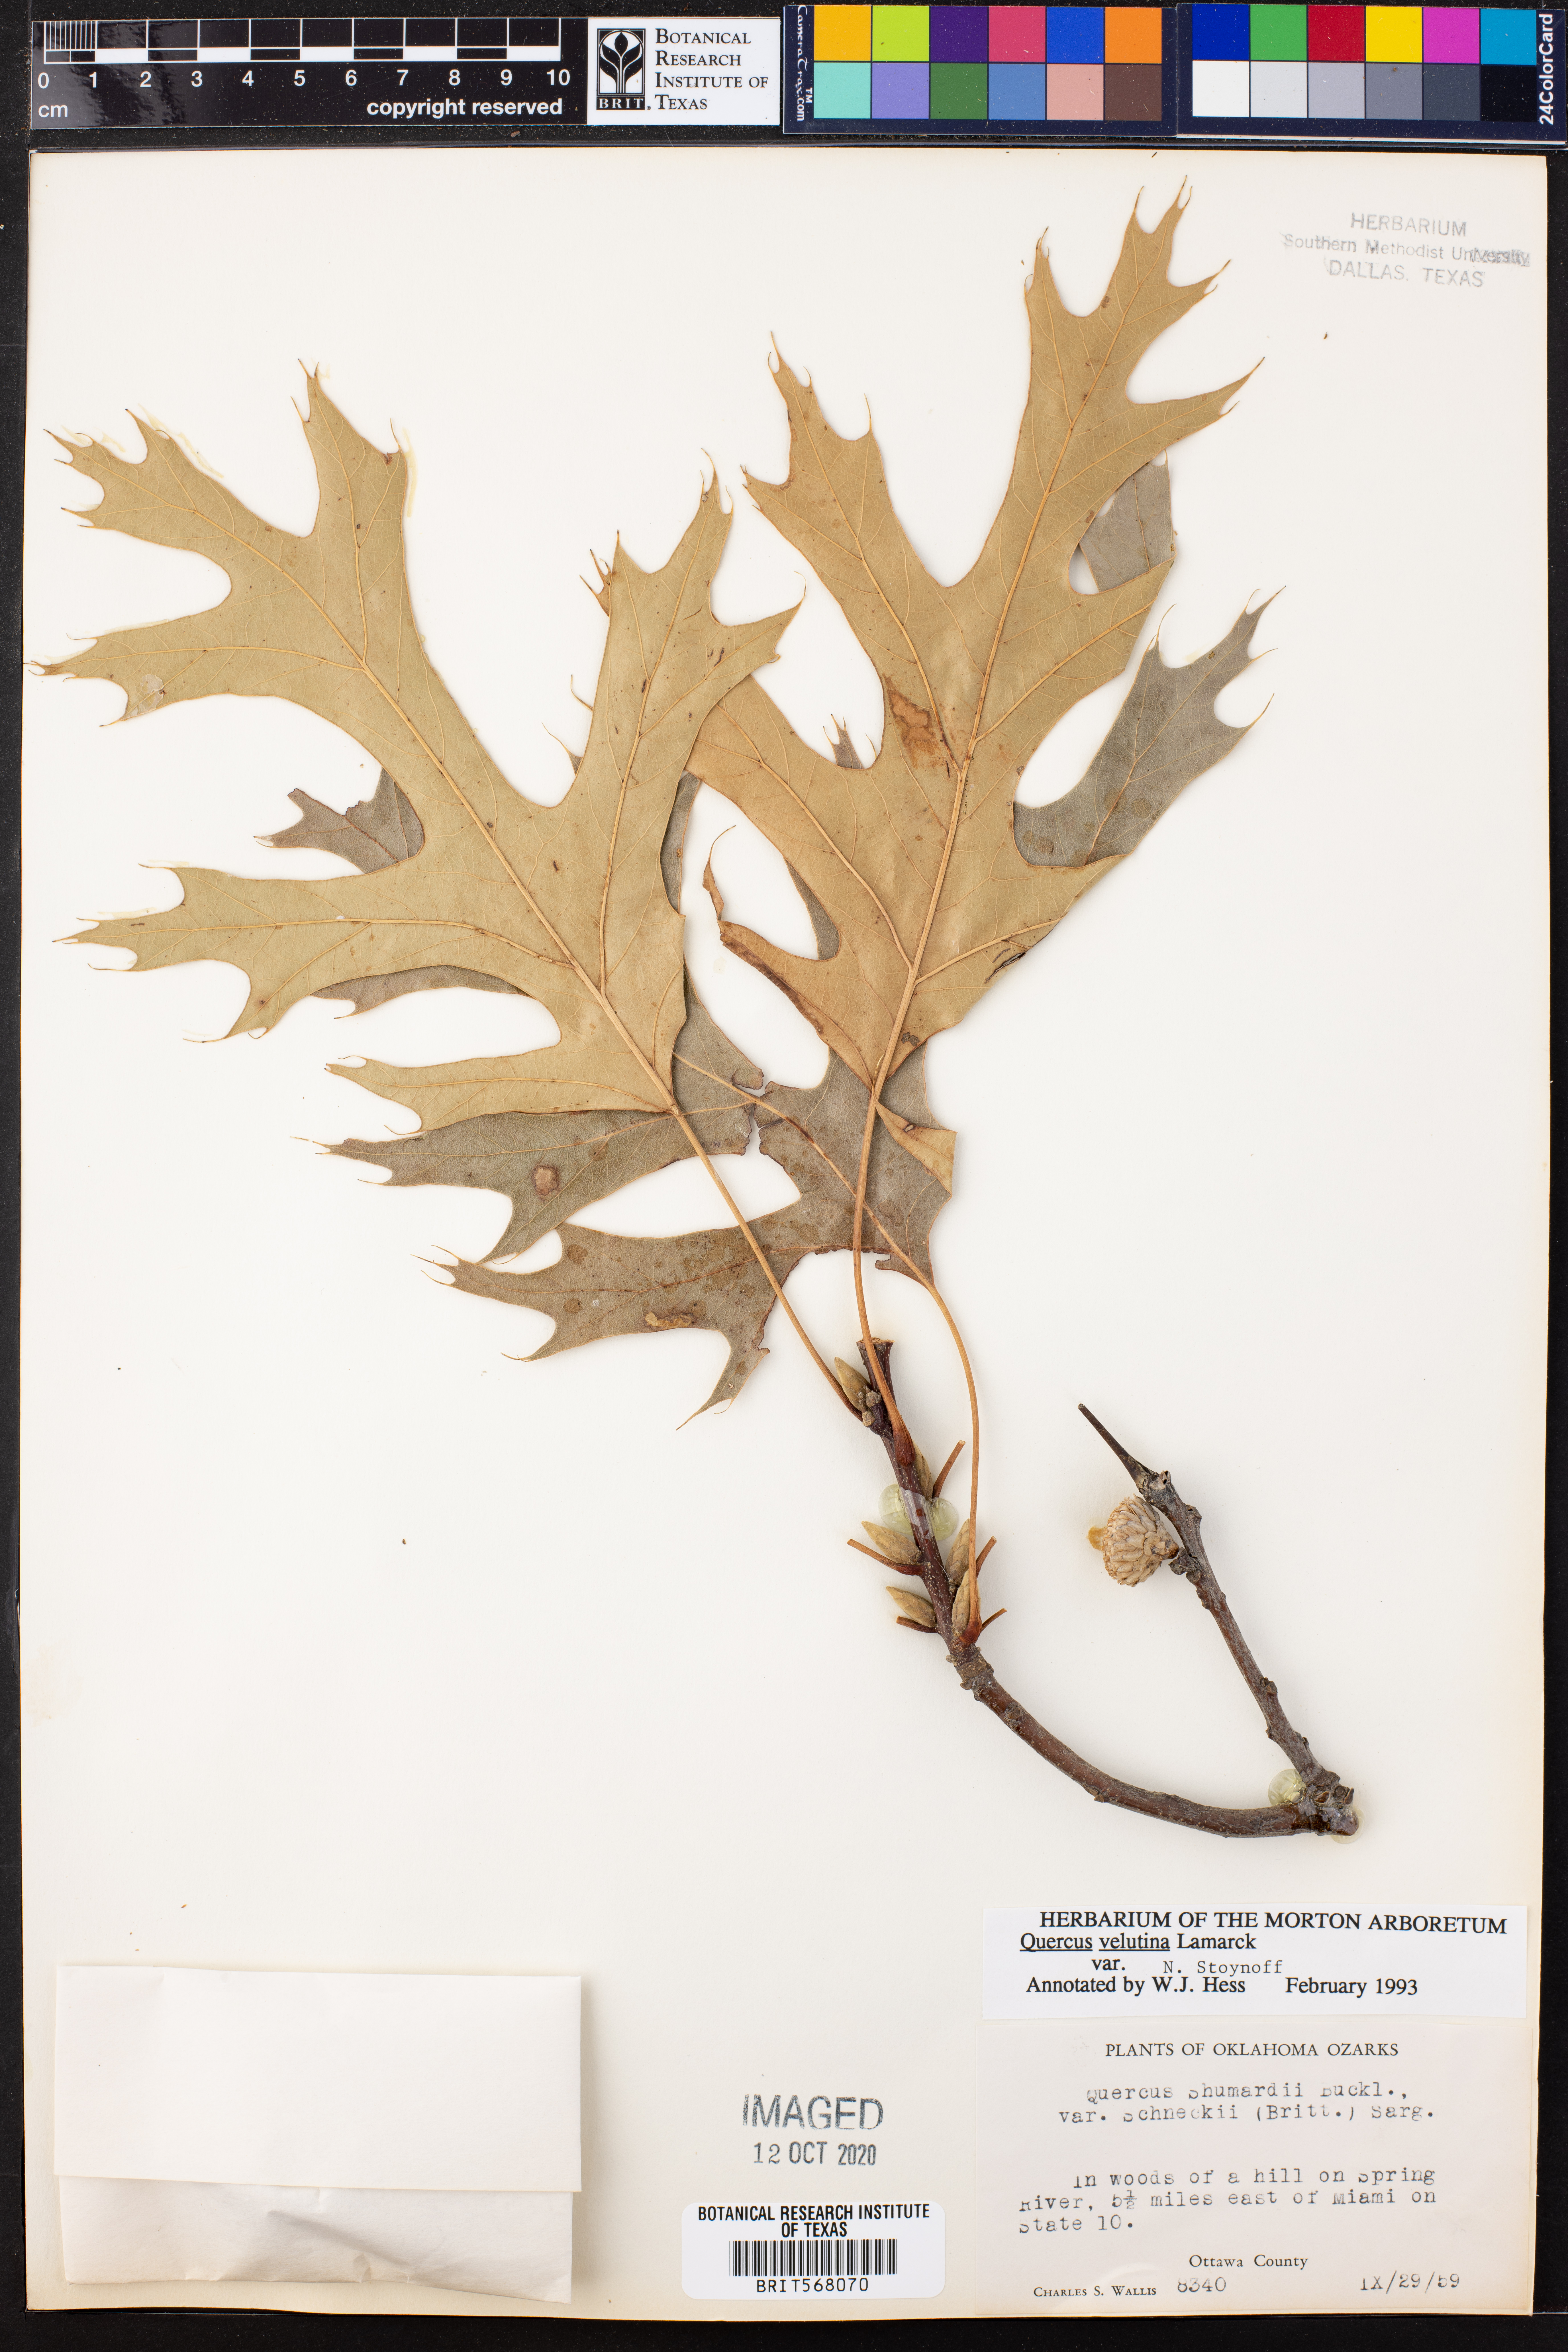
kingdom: Plantae
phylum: Tracheophyta
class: Magnoliopsida
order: Fagales
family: Fagaceae
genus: Quercus
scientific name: Quercus velutina
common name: Black oak
